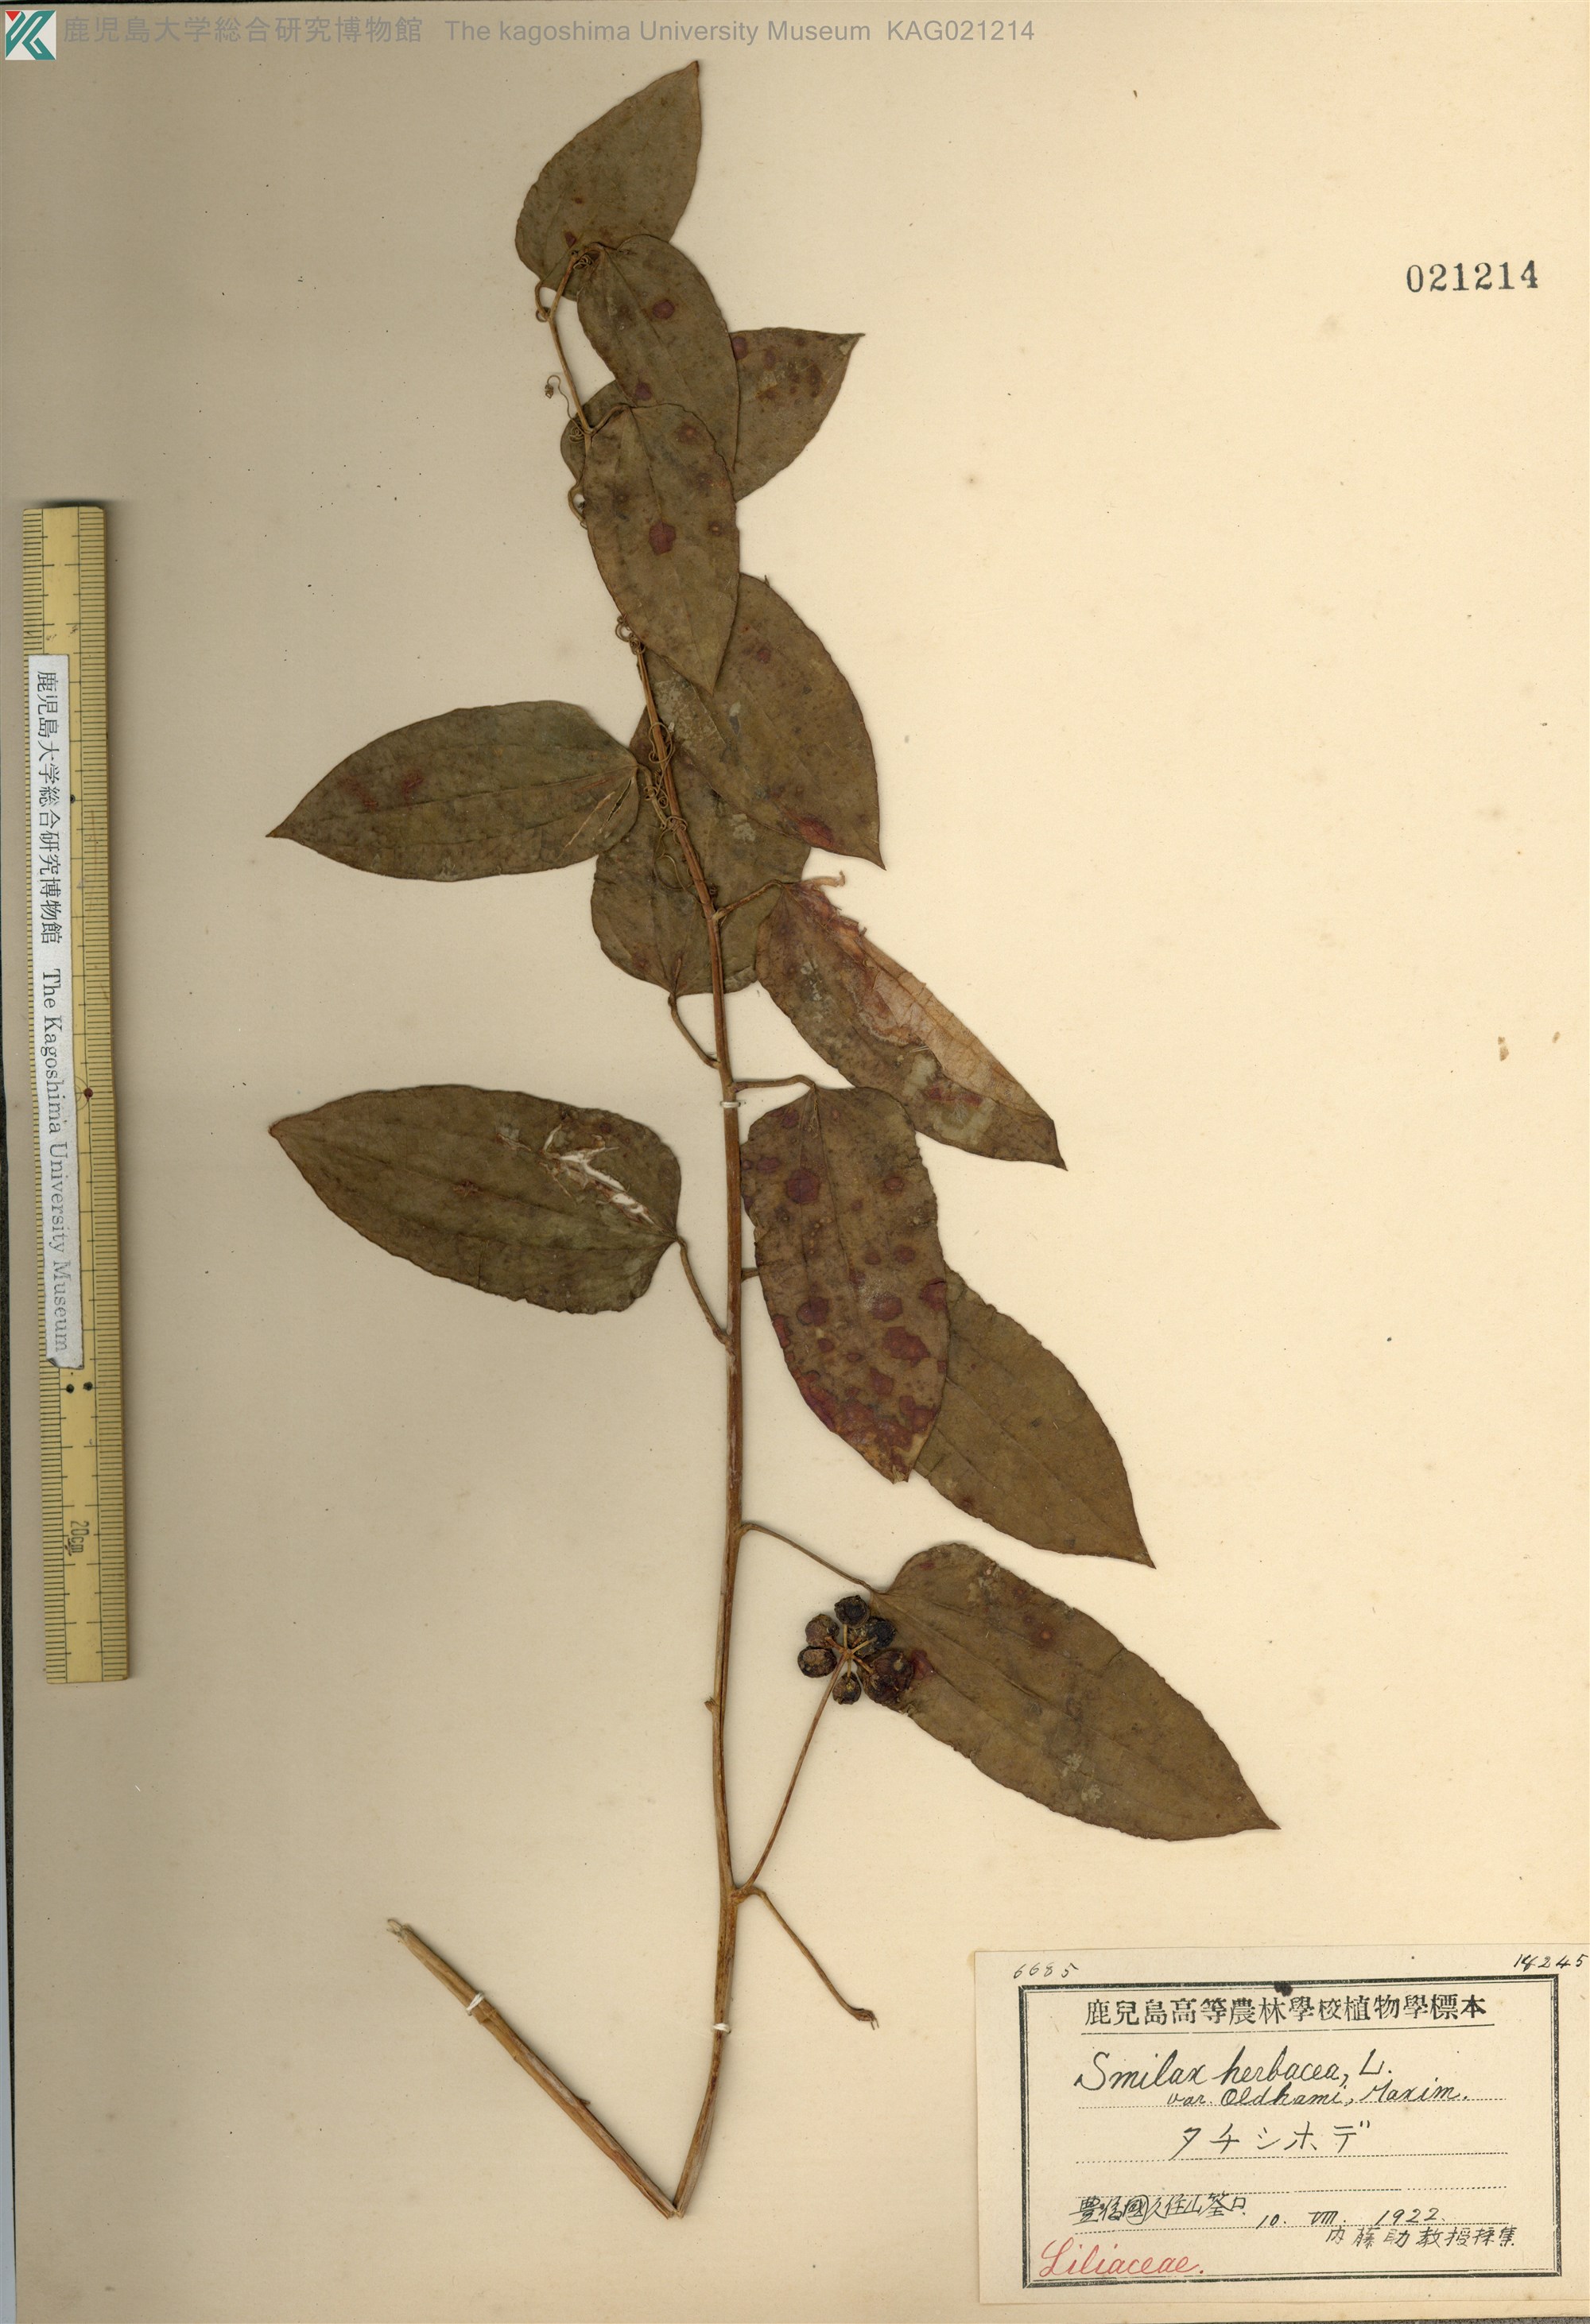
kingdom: Plantae
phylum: Tracheophyta
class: Liliopsida
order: Liliales
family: Smilacaceae
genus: Smilax
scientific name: Smilax nipponica
